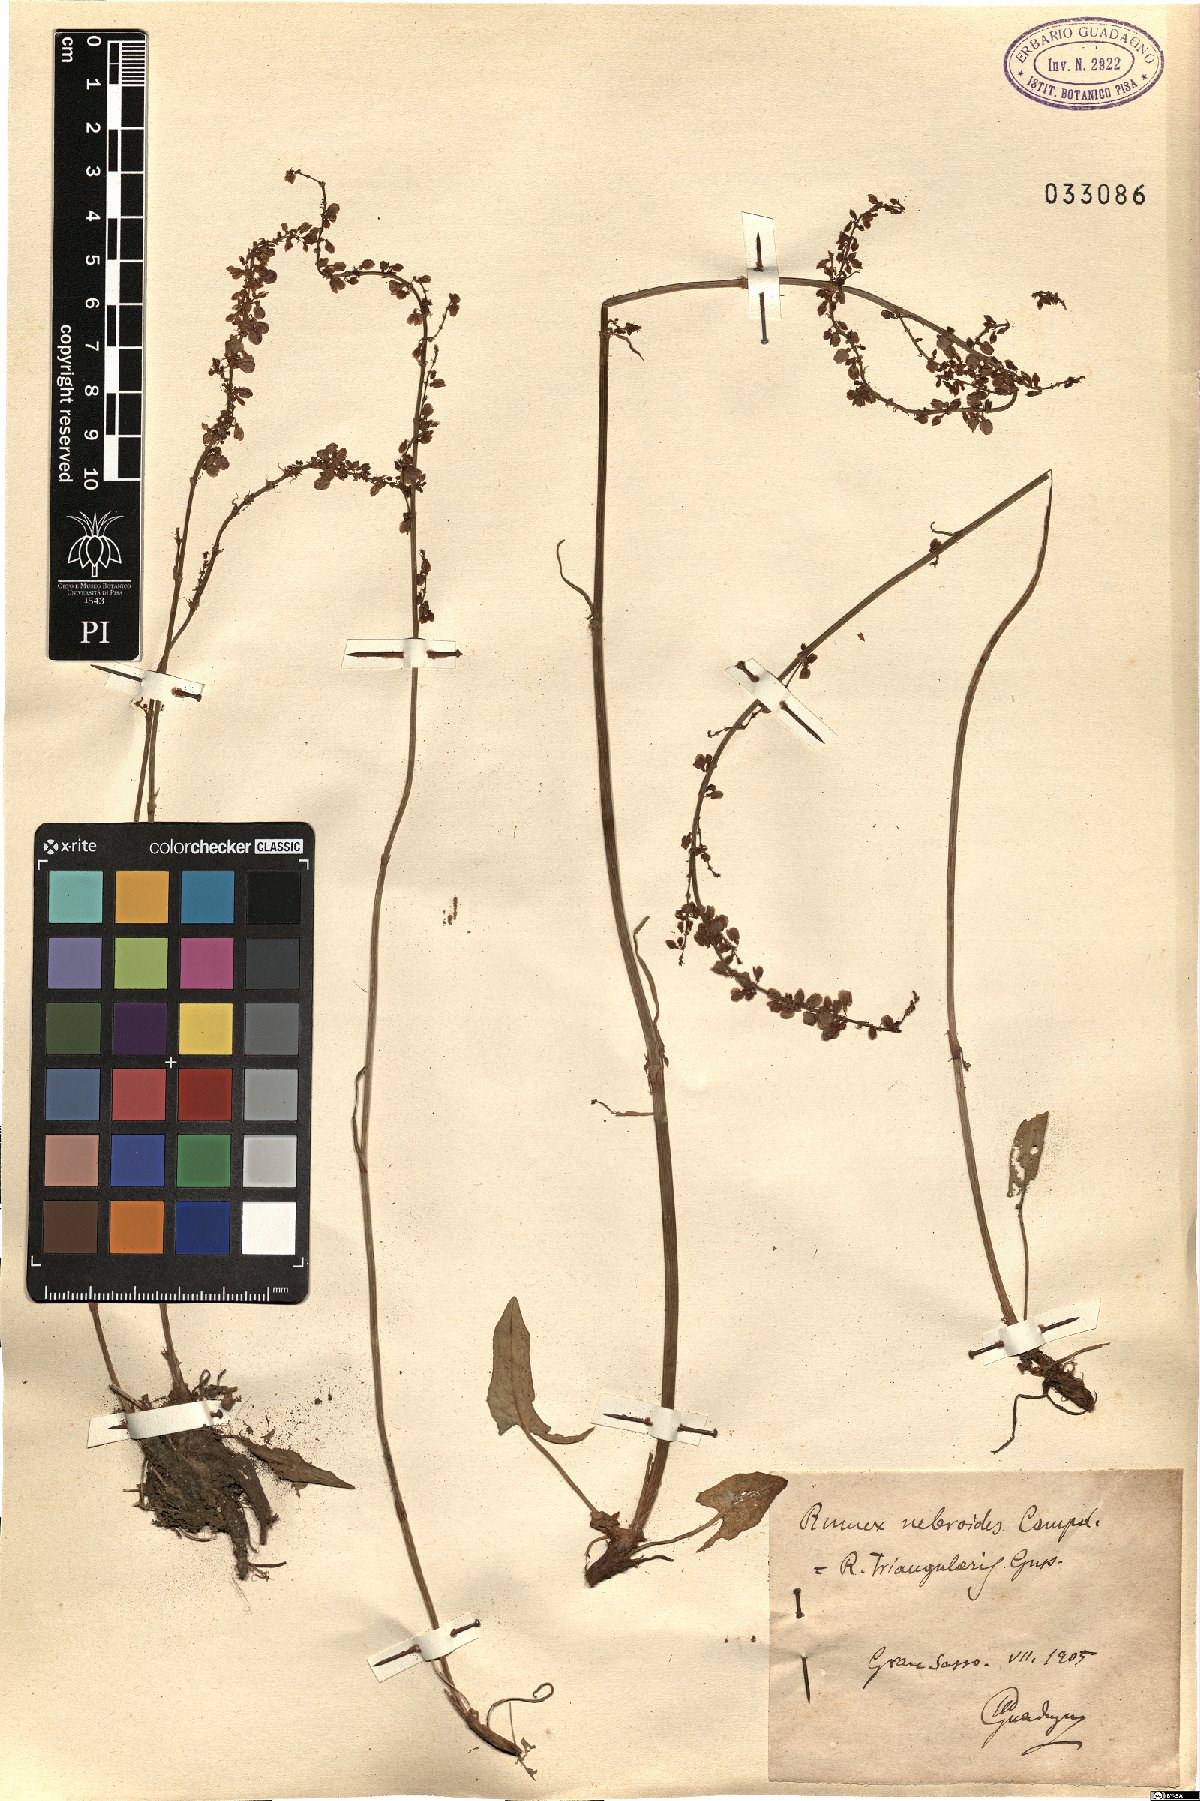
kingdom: Plantae
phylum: Tracheophyta
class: Magnoliopsida
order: Caryophyllales
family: Polygonaceae
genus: Rumex
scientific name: Rumex nebroides
